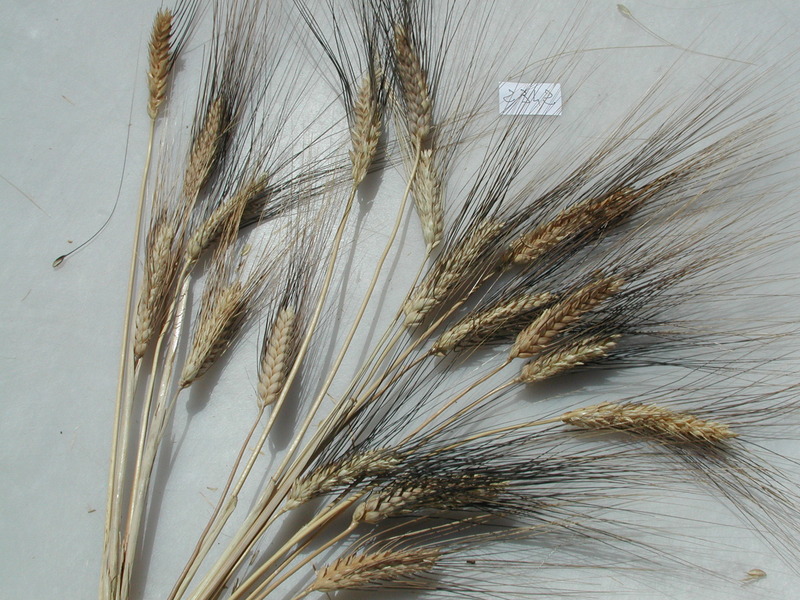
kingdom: Plantae
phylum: Tracheophyta
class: Liliopsida
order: Poales
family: Poaceae
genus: Triticum
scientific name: Triticum turgidum
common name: Wheat
